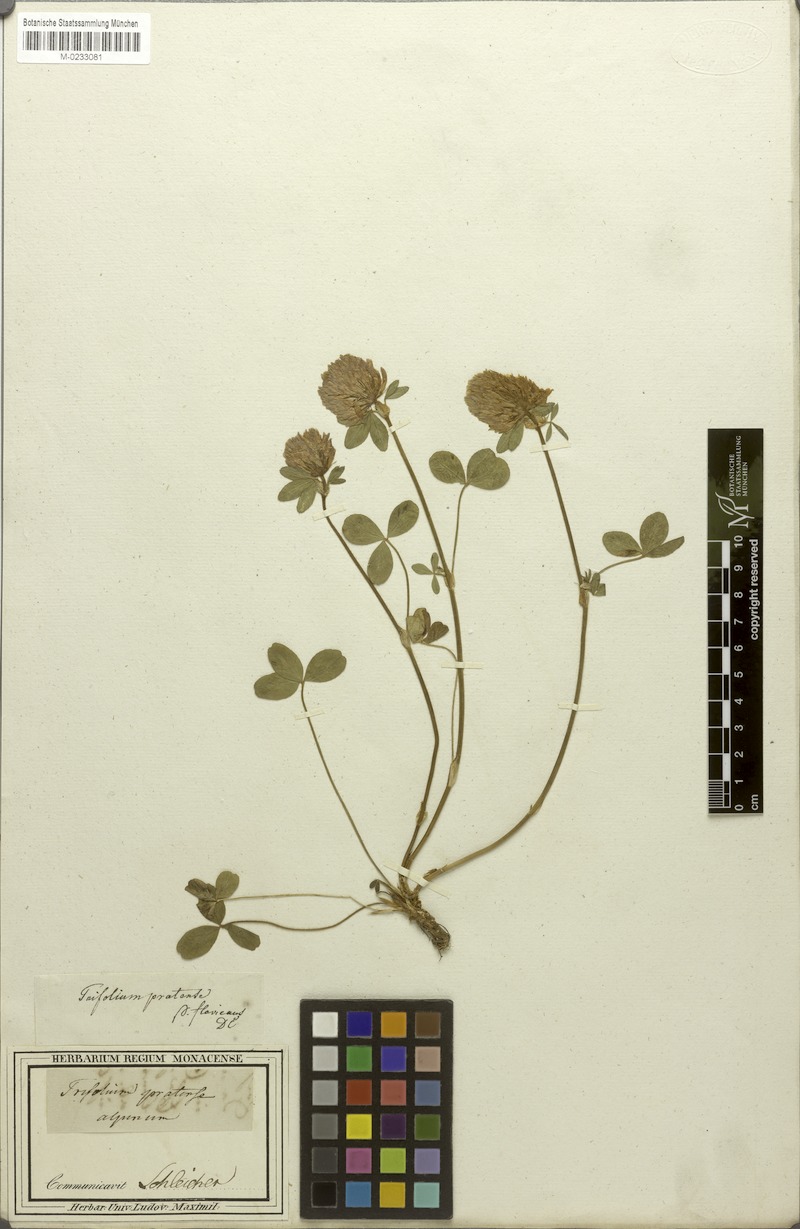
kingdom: Plantae
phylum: Tracheophyta
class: Magnoliopsida
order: Fabales
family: Fabaceae
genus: Trifolium
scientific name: Trifolium pratense
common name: Red clover
